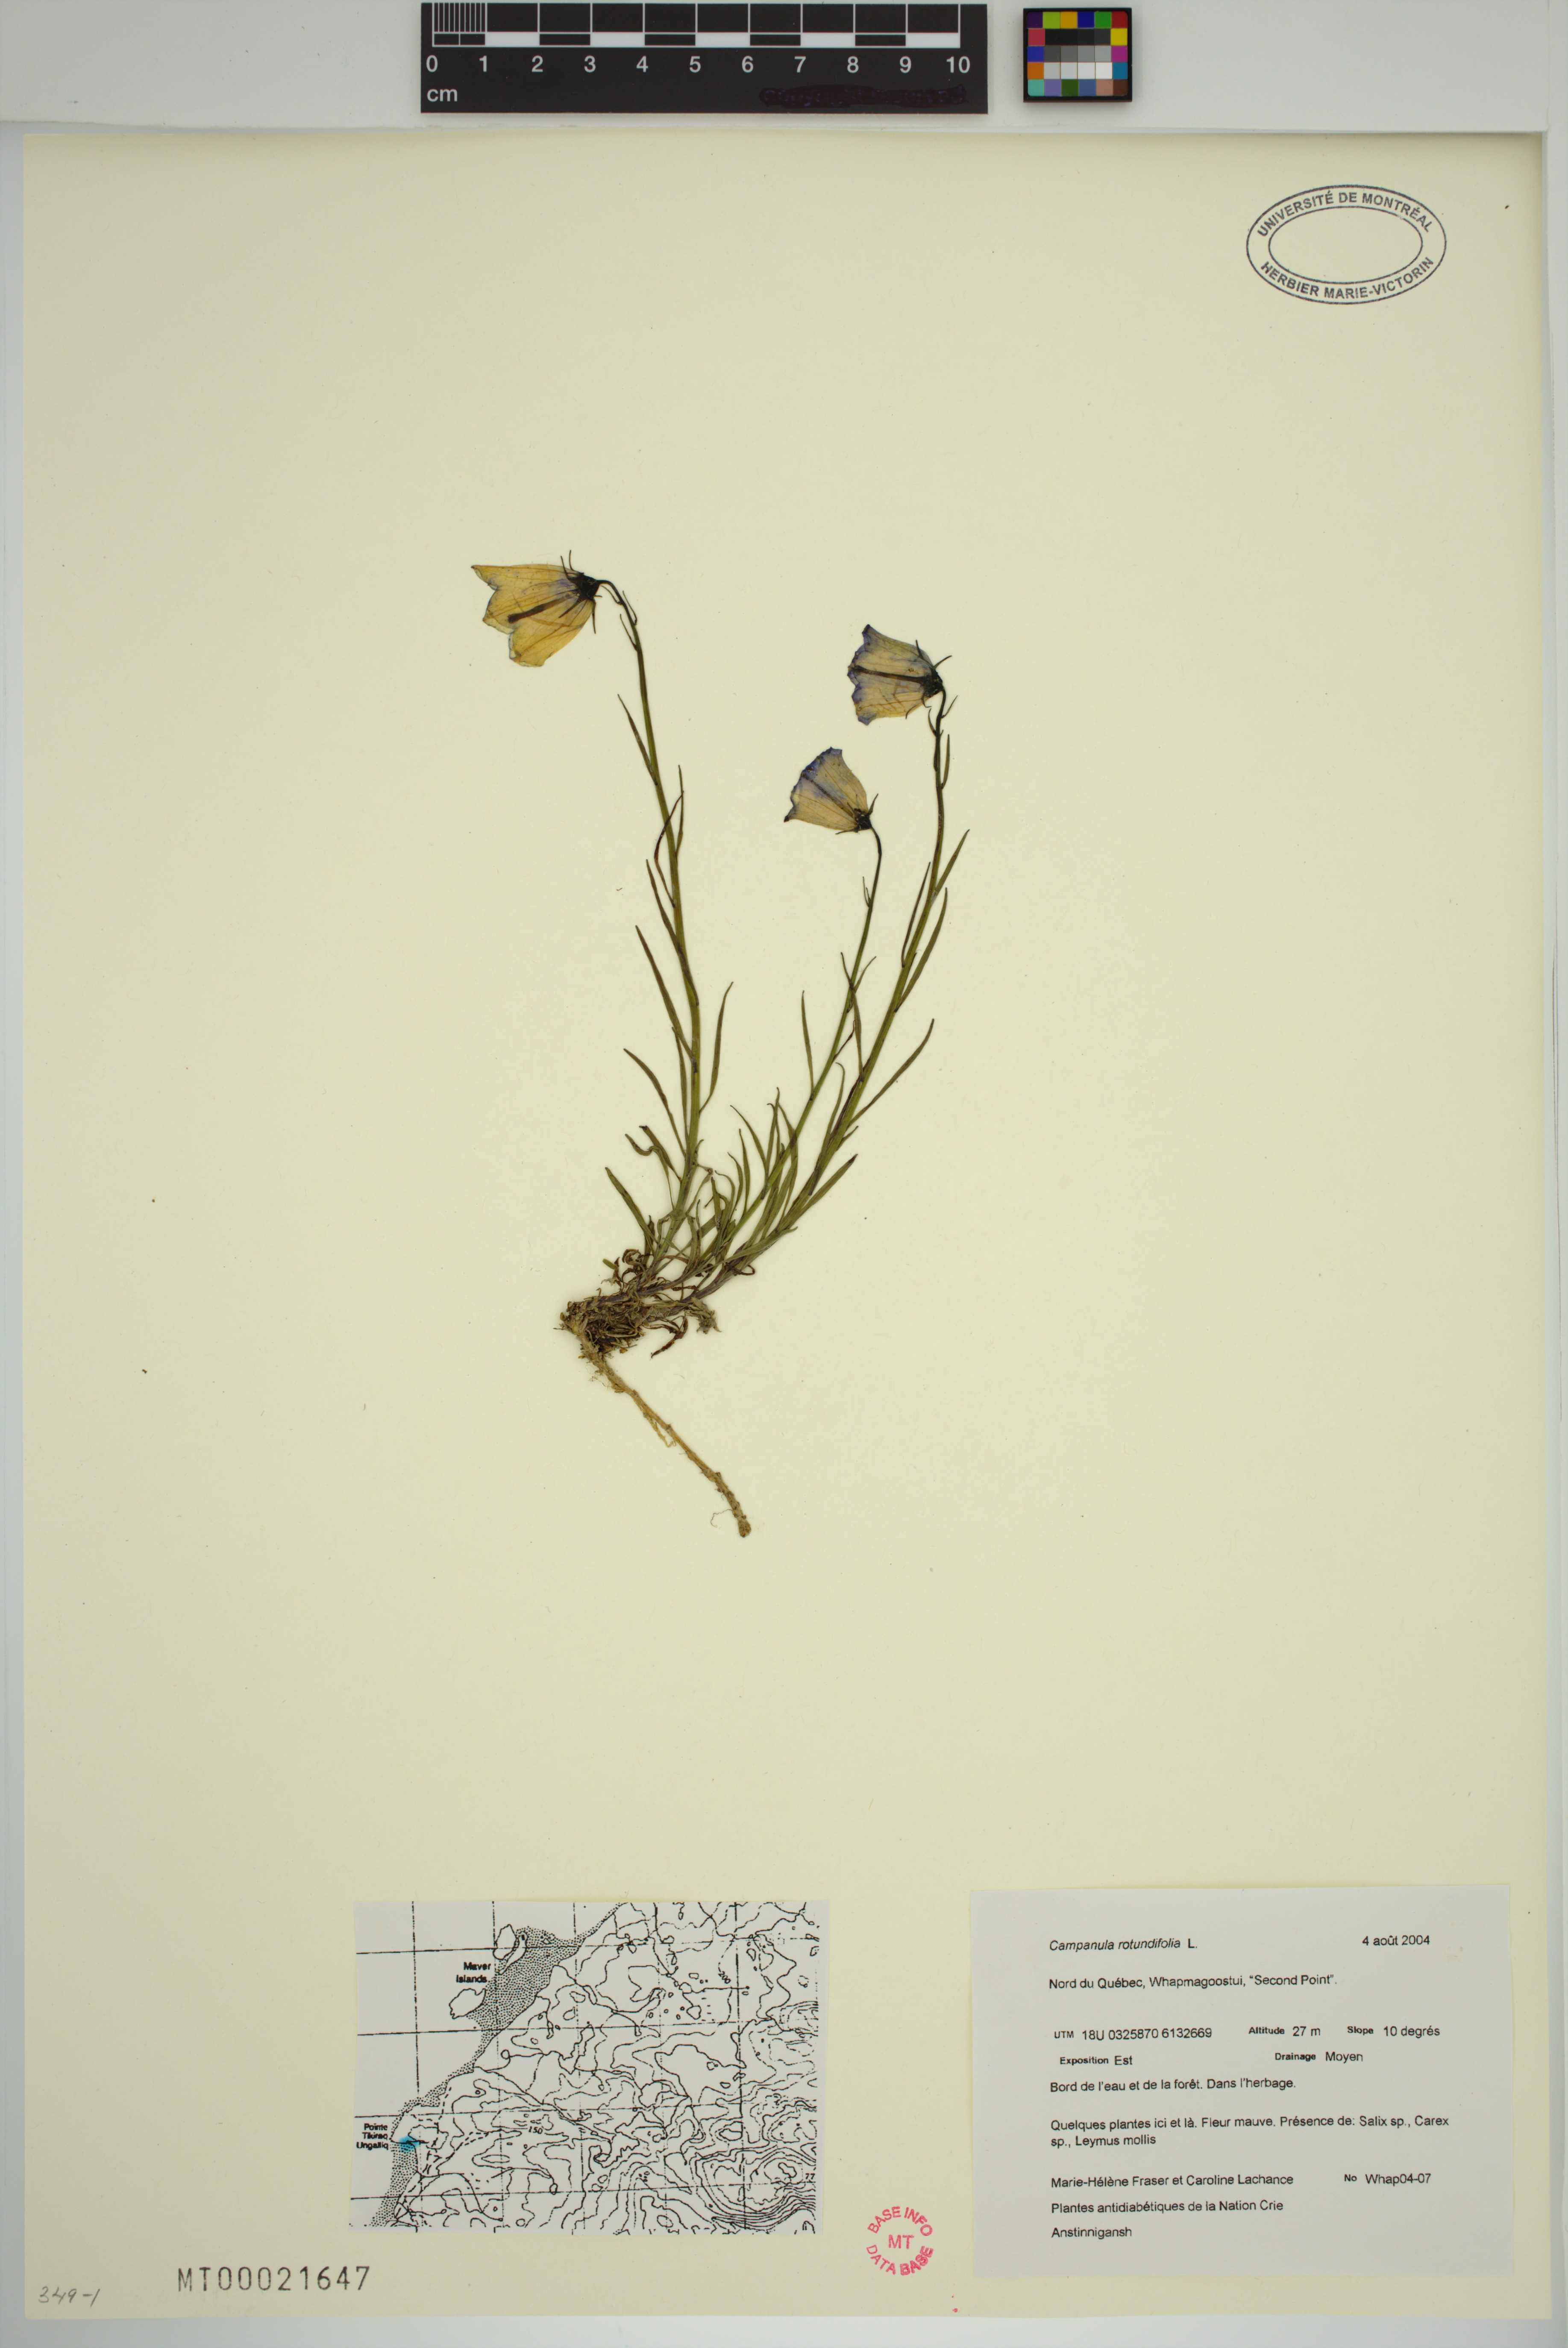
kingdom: Plantae
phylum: Tracheophyta
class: Magnoliopsida
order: Asterales
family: Campanulaceae
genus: Campanula
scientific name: Campanula rotundifolia
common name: Harebell
